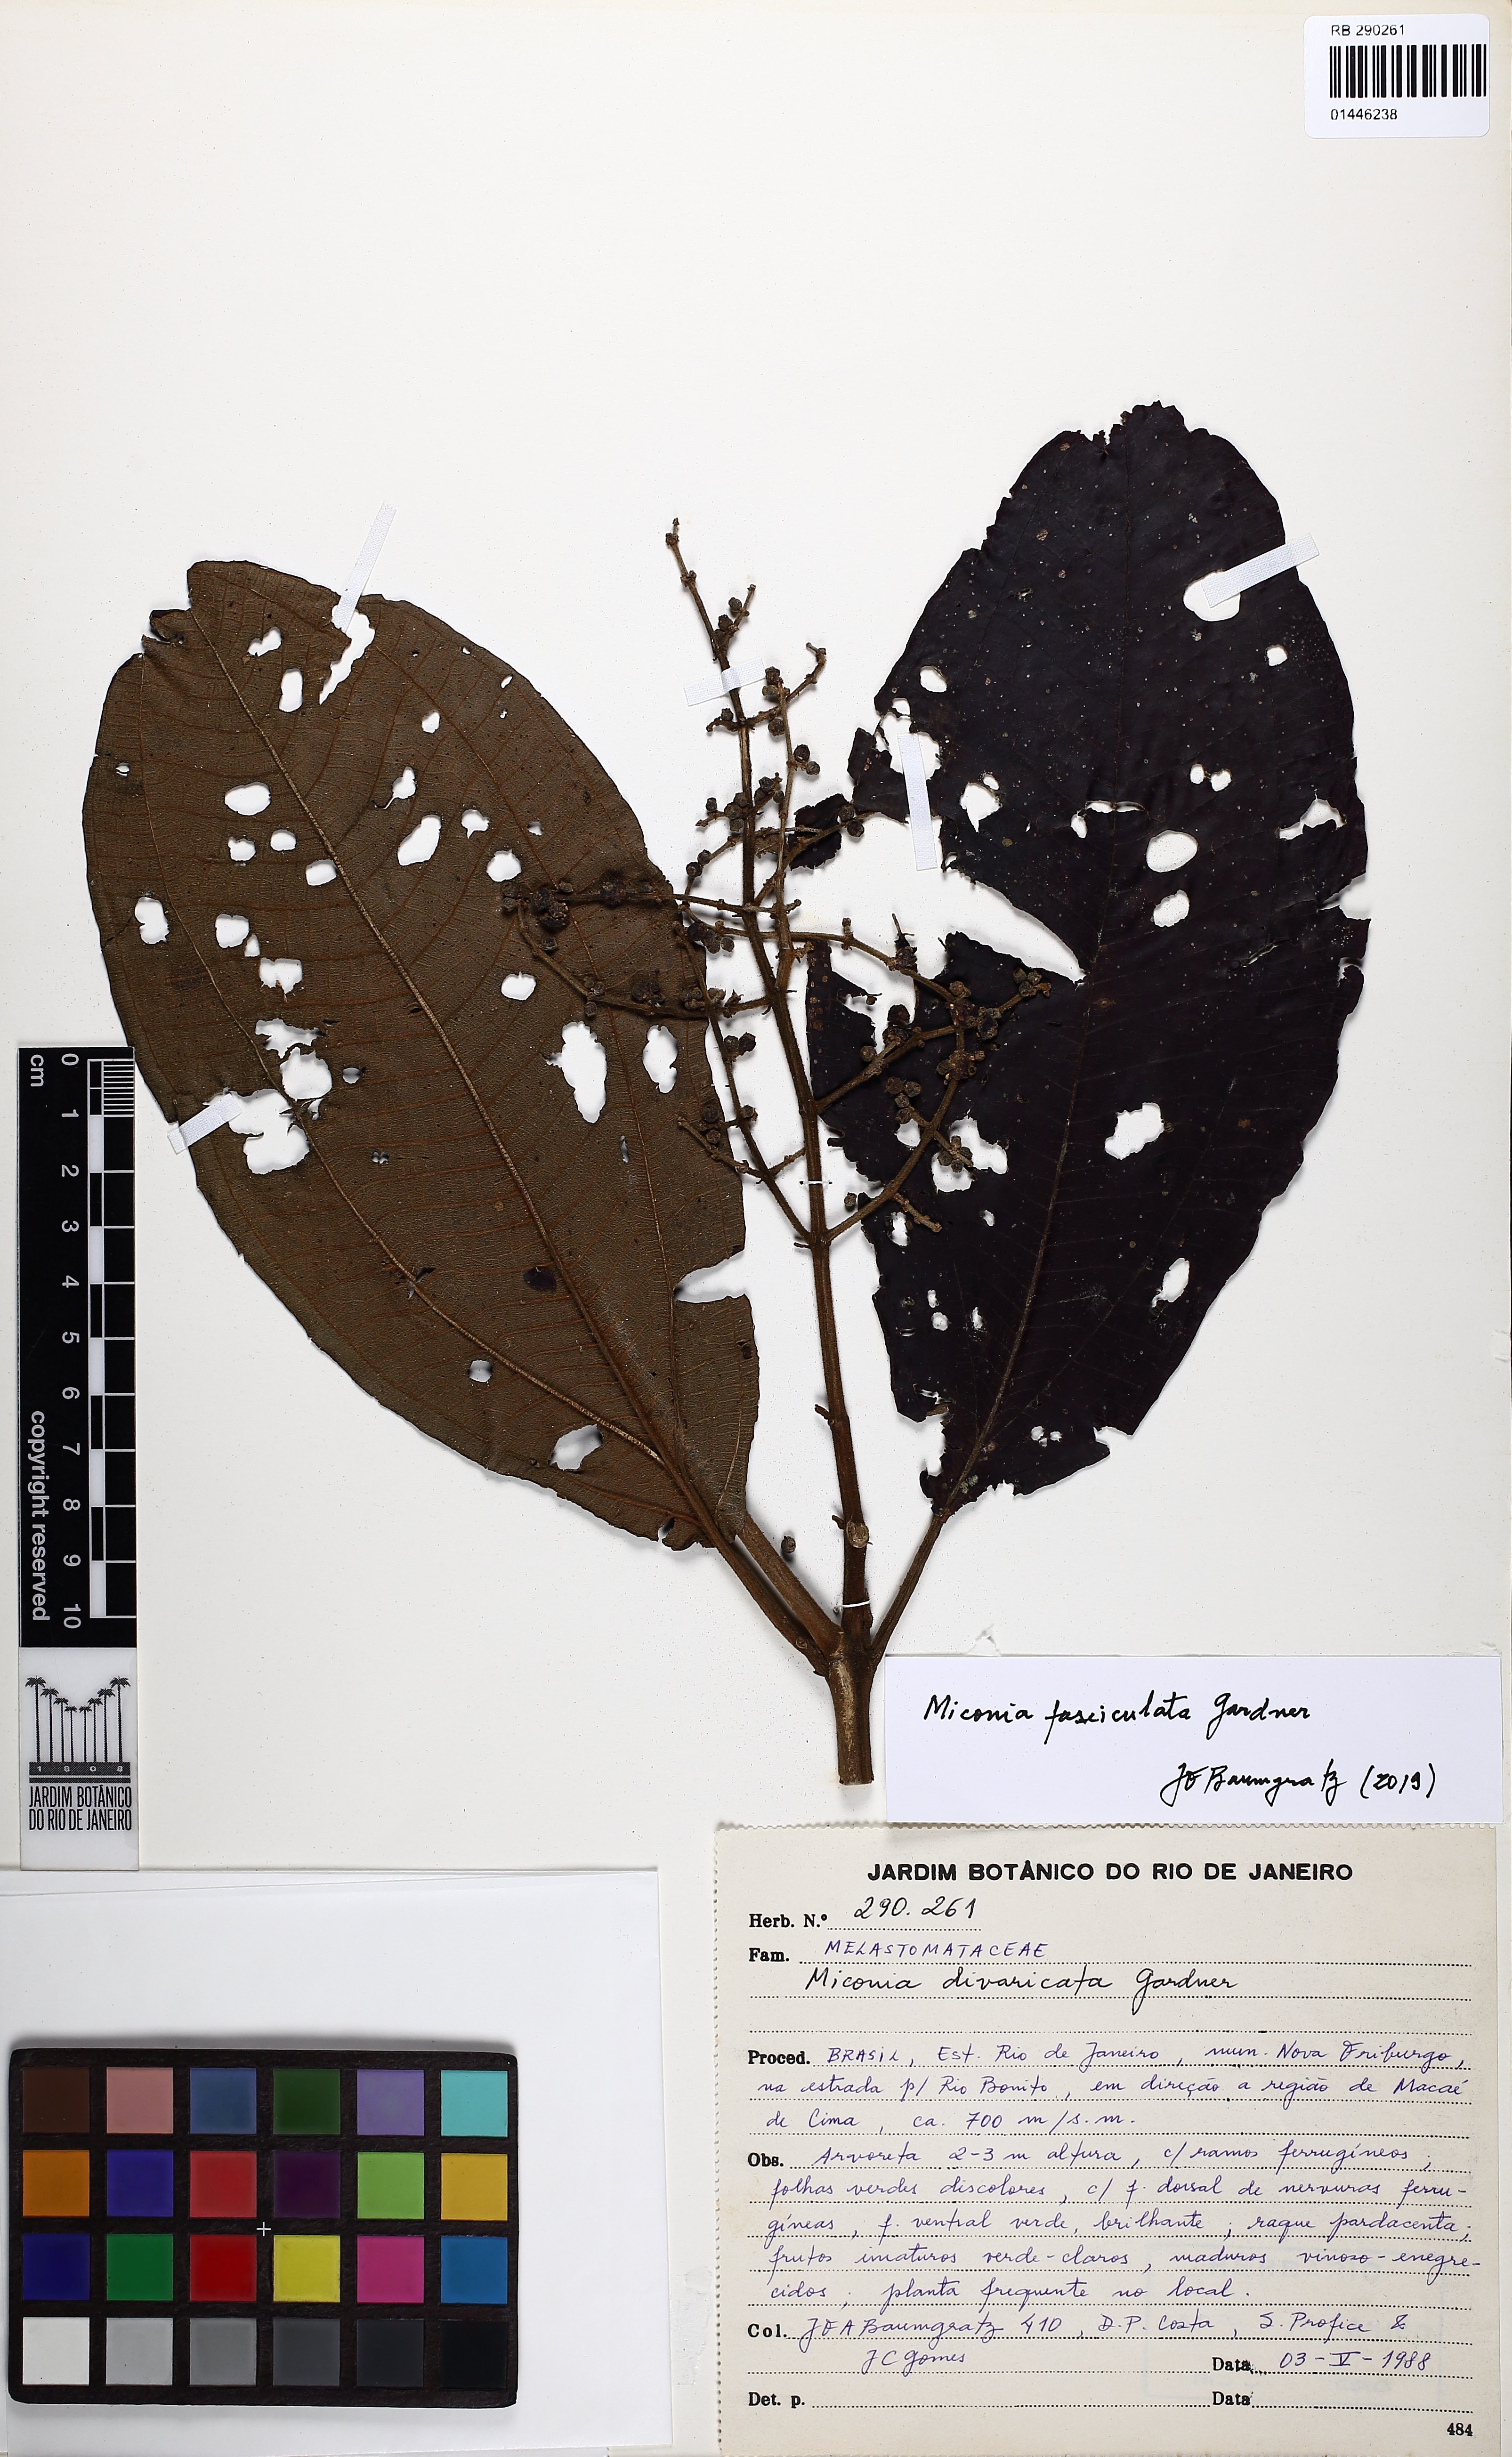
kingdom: Plantae
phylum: Tracheophyta
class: Magnoliopsida
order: Myrtales
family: Melastomataceae
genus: Miconia
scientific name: Miconia fasciculata
